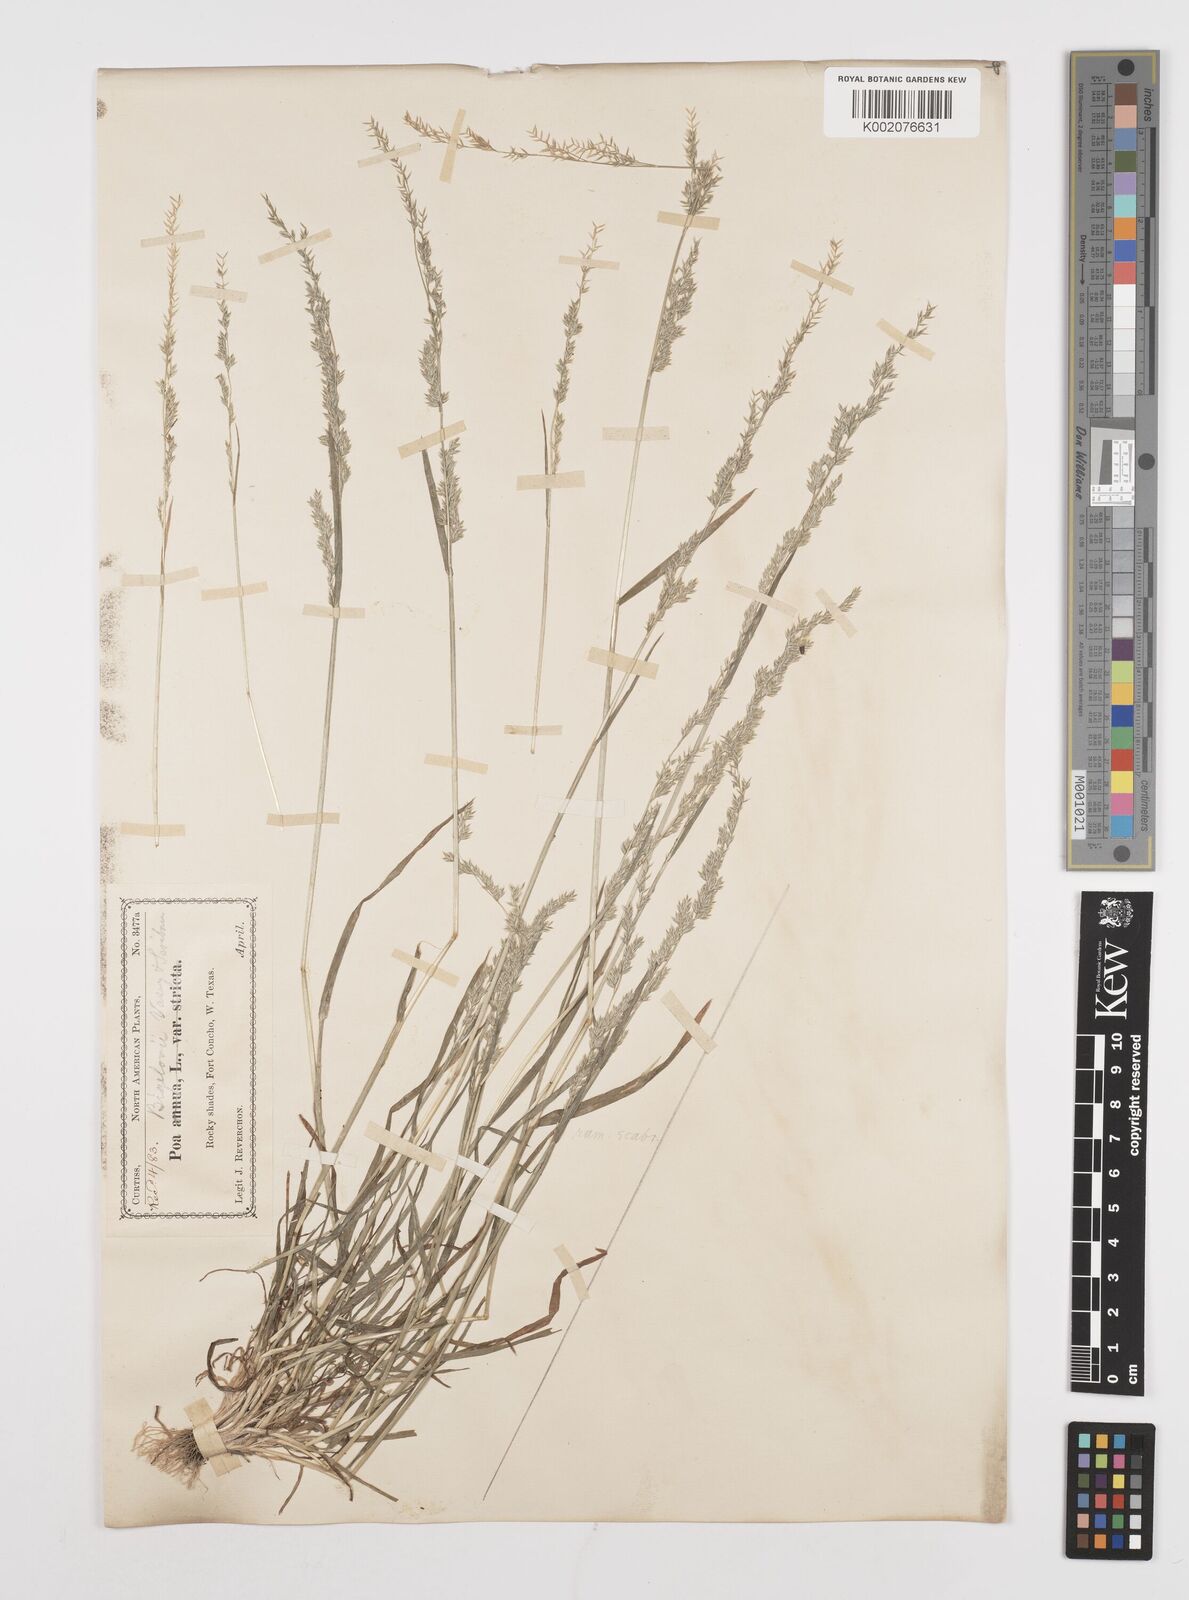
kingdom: Plantae
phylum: Tracheophyta
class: Liliopsida
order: Poales
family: Poaceae
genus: Poa
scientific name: Poa bigelovii
